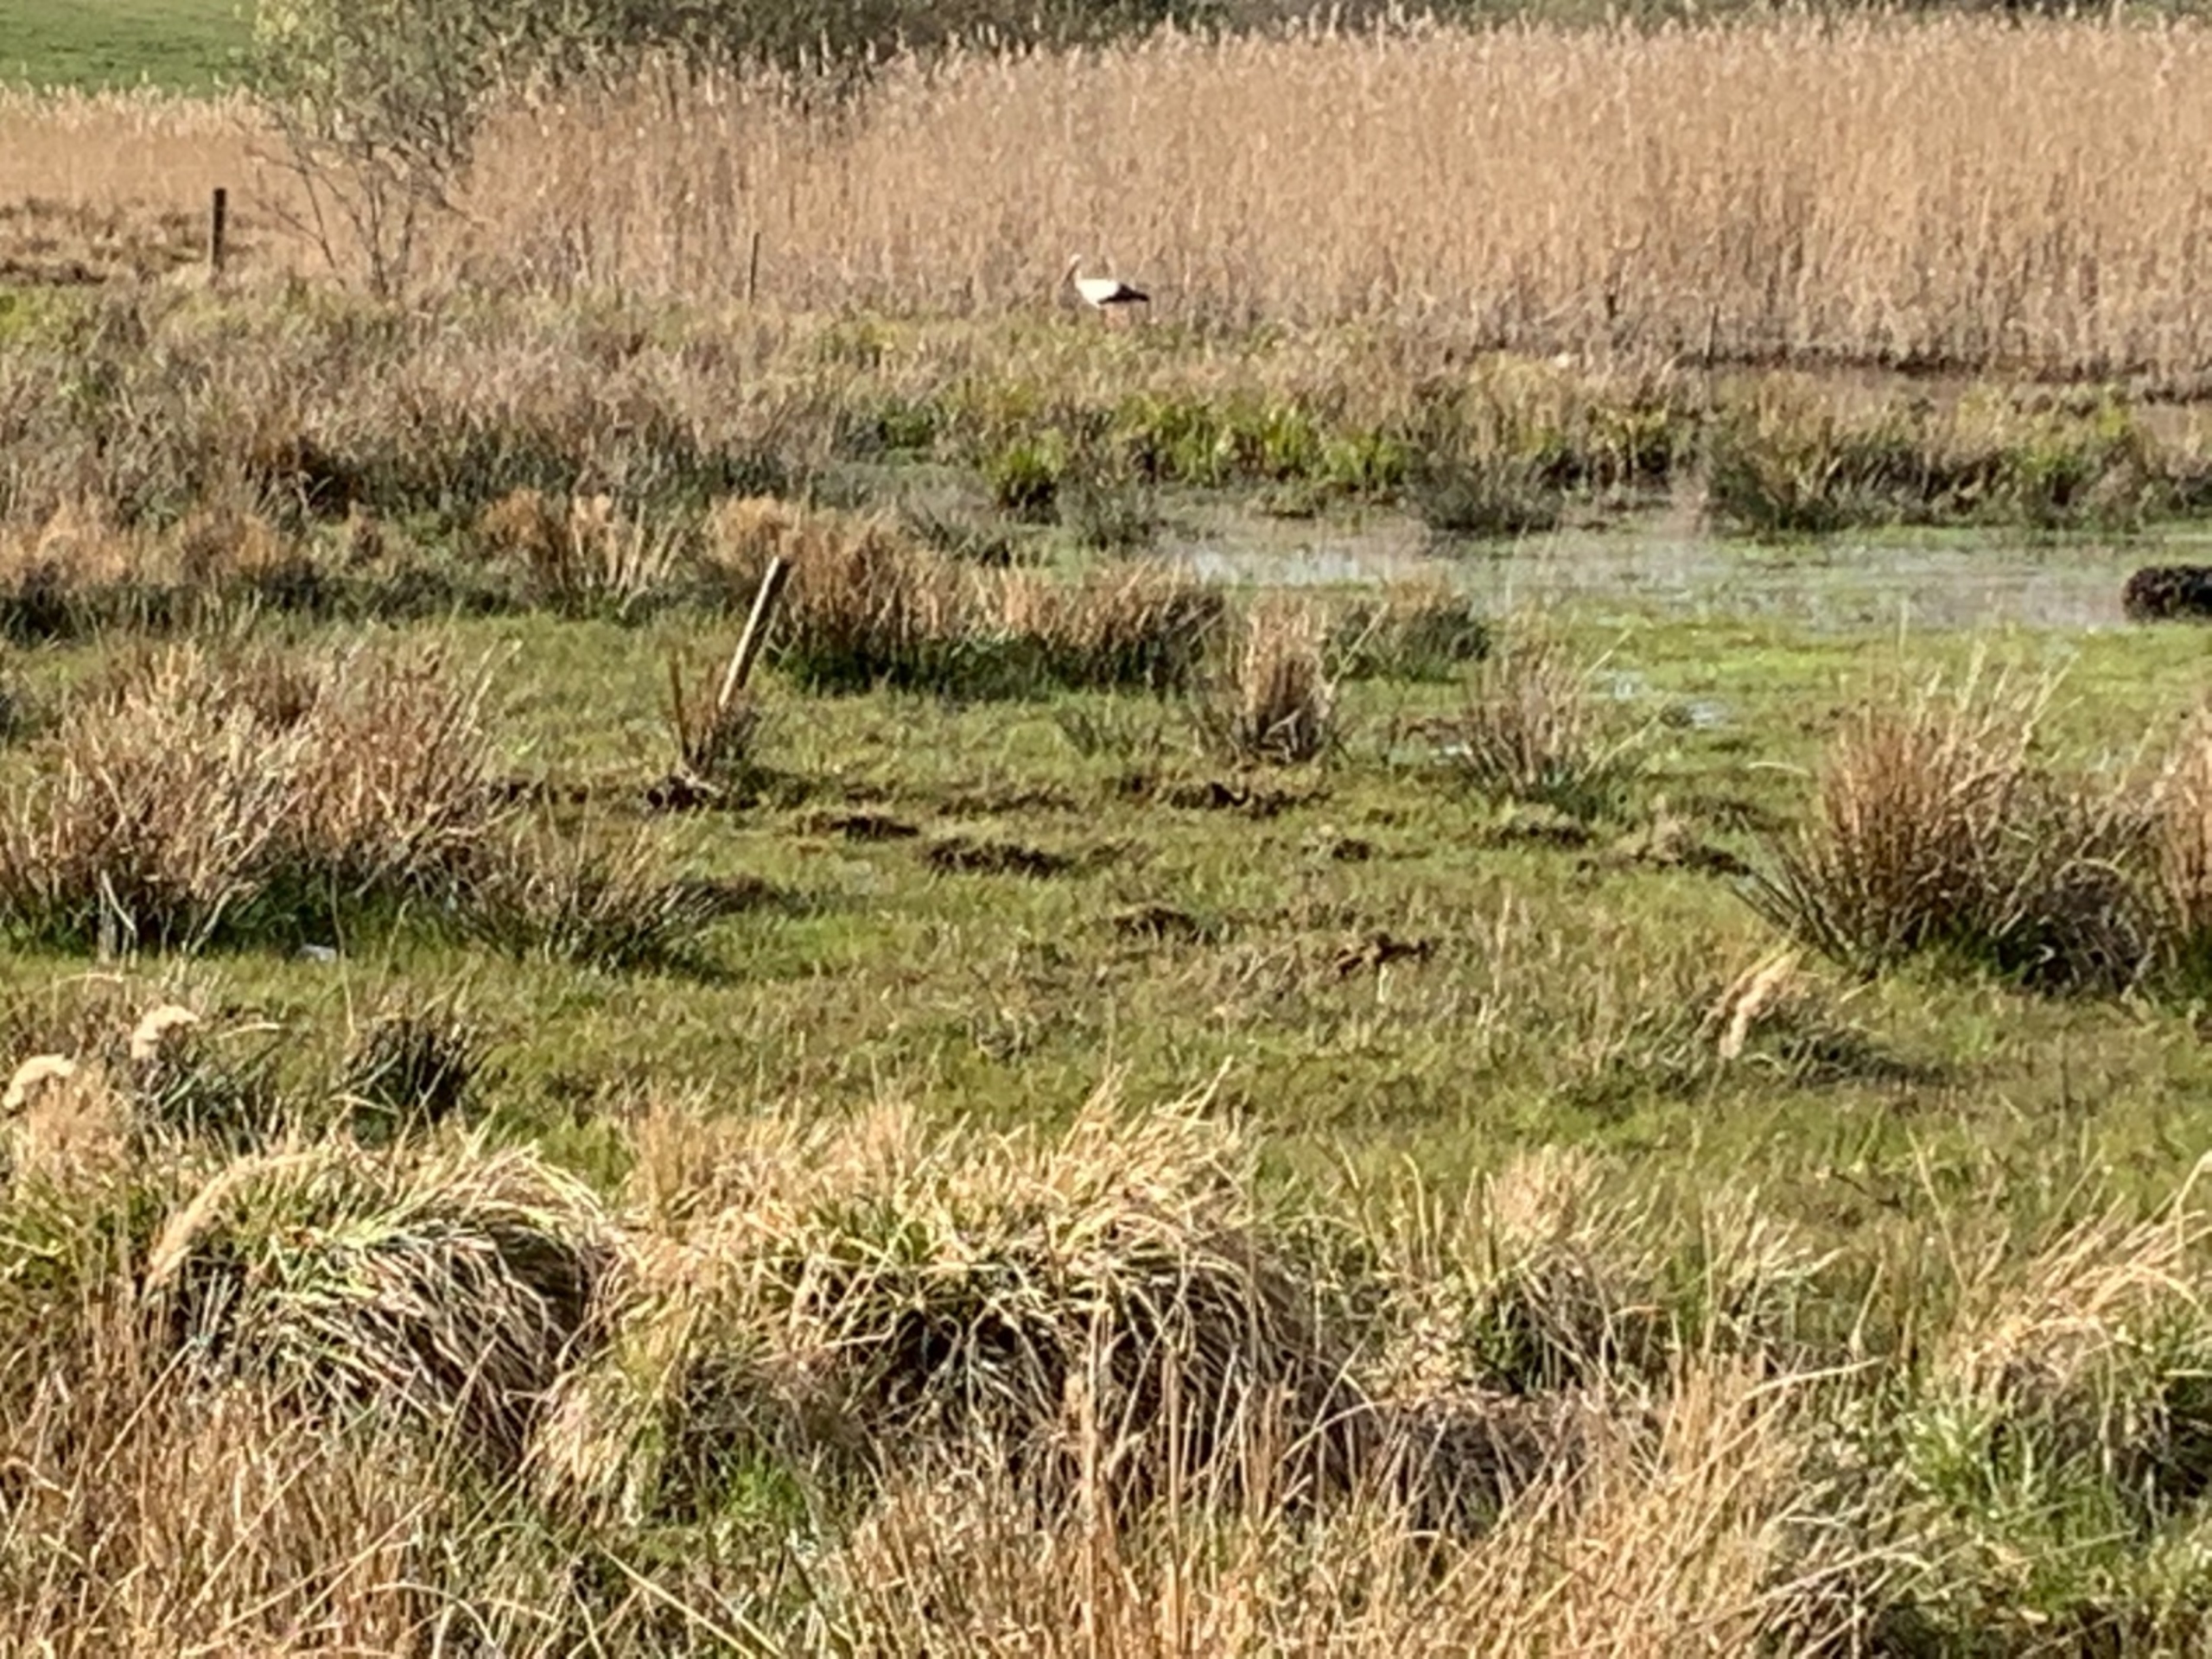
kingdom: Animalia
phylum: Chordata
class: Aves
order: Ciconiiformes
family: Ciconiidae
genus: Ciconia
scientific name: Ciconia ciconia
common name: Hvid stork
